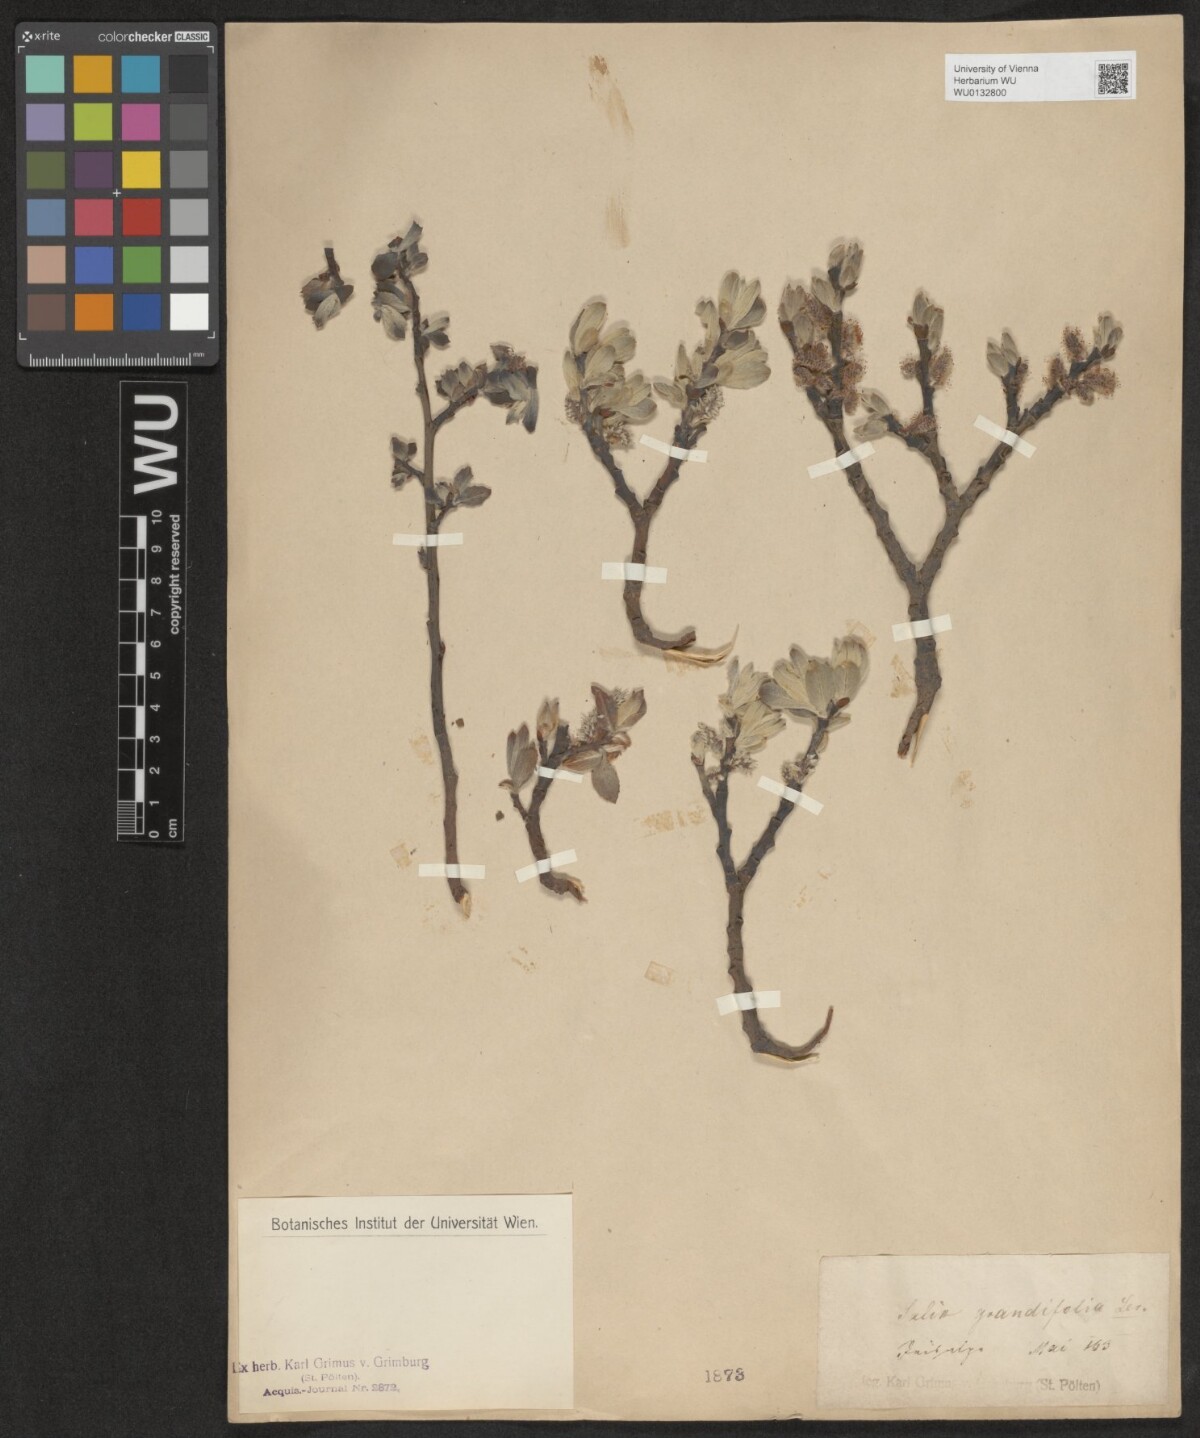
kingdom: Plantae
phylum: Tracheophyta
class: Magnoliopsida
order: Malpighiales
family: Salicaceae
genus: Salix
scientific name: Salix appendiculata
